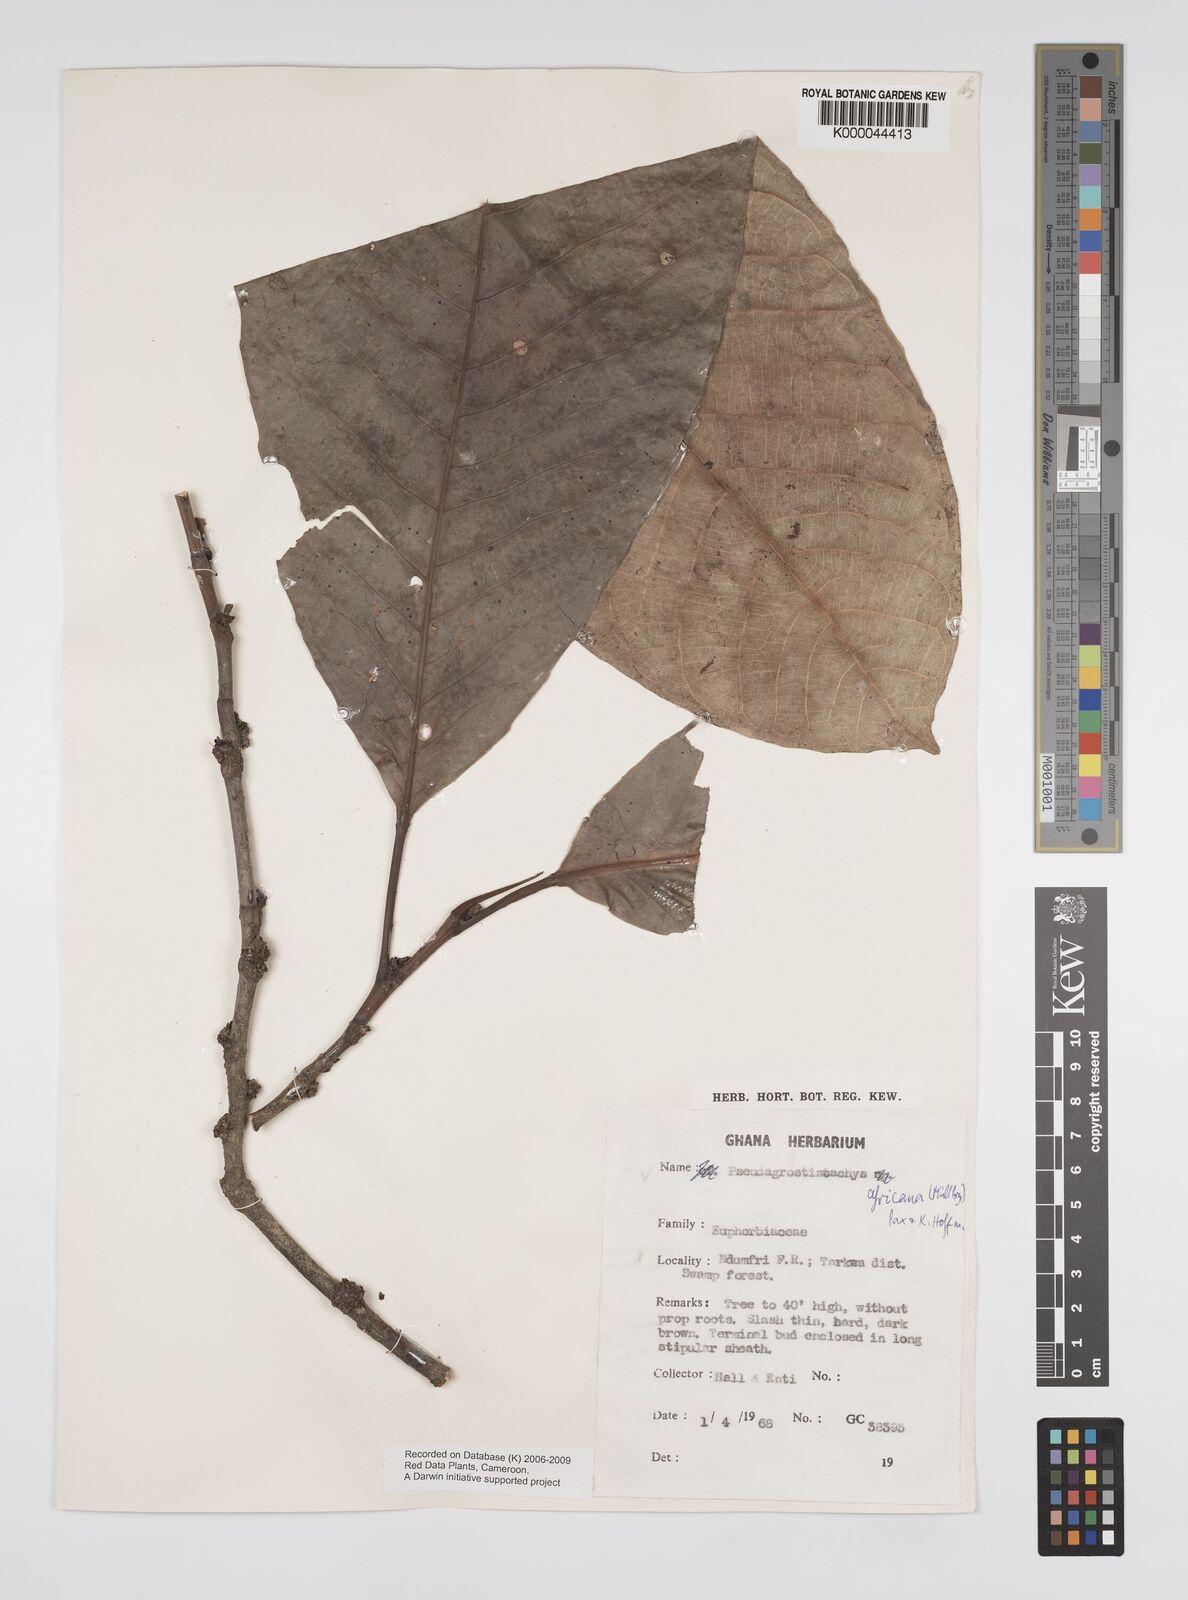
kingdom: Plantae
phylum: Tracheophyta
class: Magnoliopsida
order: Malpighiales
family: Euphorbiaceae
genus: Pseudagrostistachys
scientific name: Pseudagrostistachys
